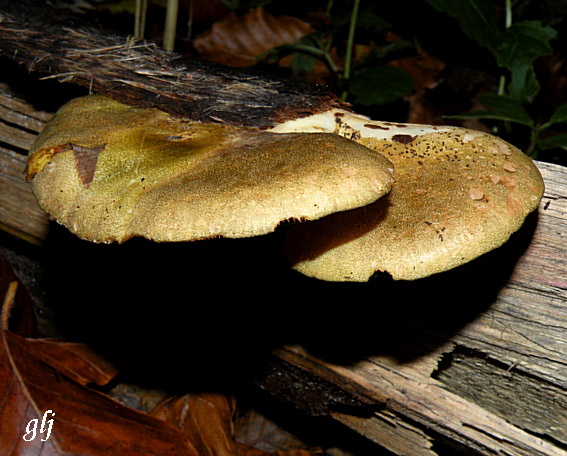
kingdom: Fungi
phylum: Basidiomycota
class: Agaricomycetes
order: Agaricales
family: Sarcomyxaceae
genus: Sarcomyxa
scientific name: Sarcomyxa serotina
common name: gummihat
